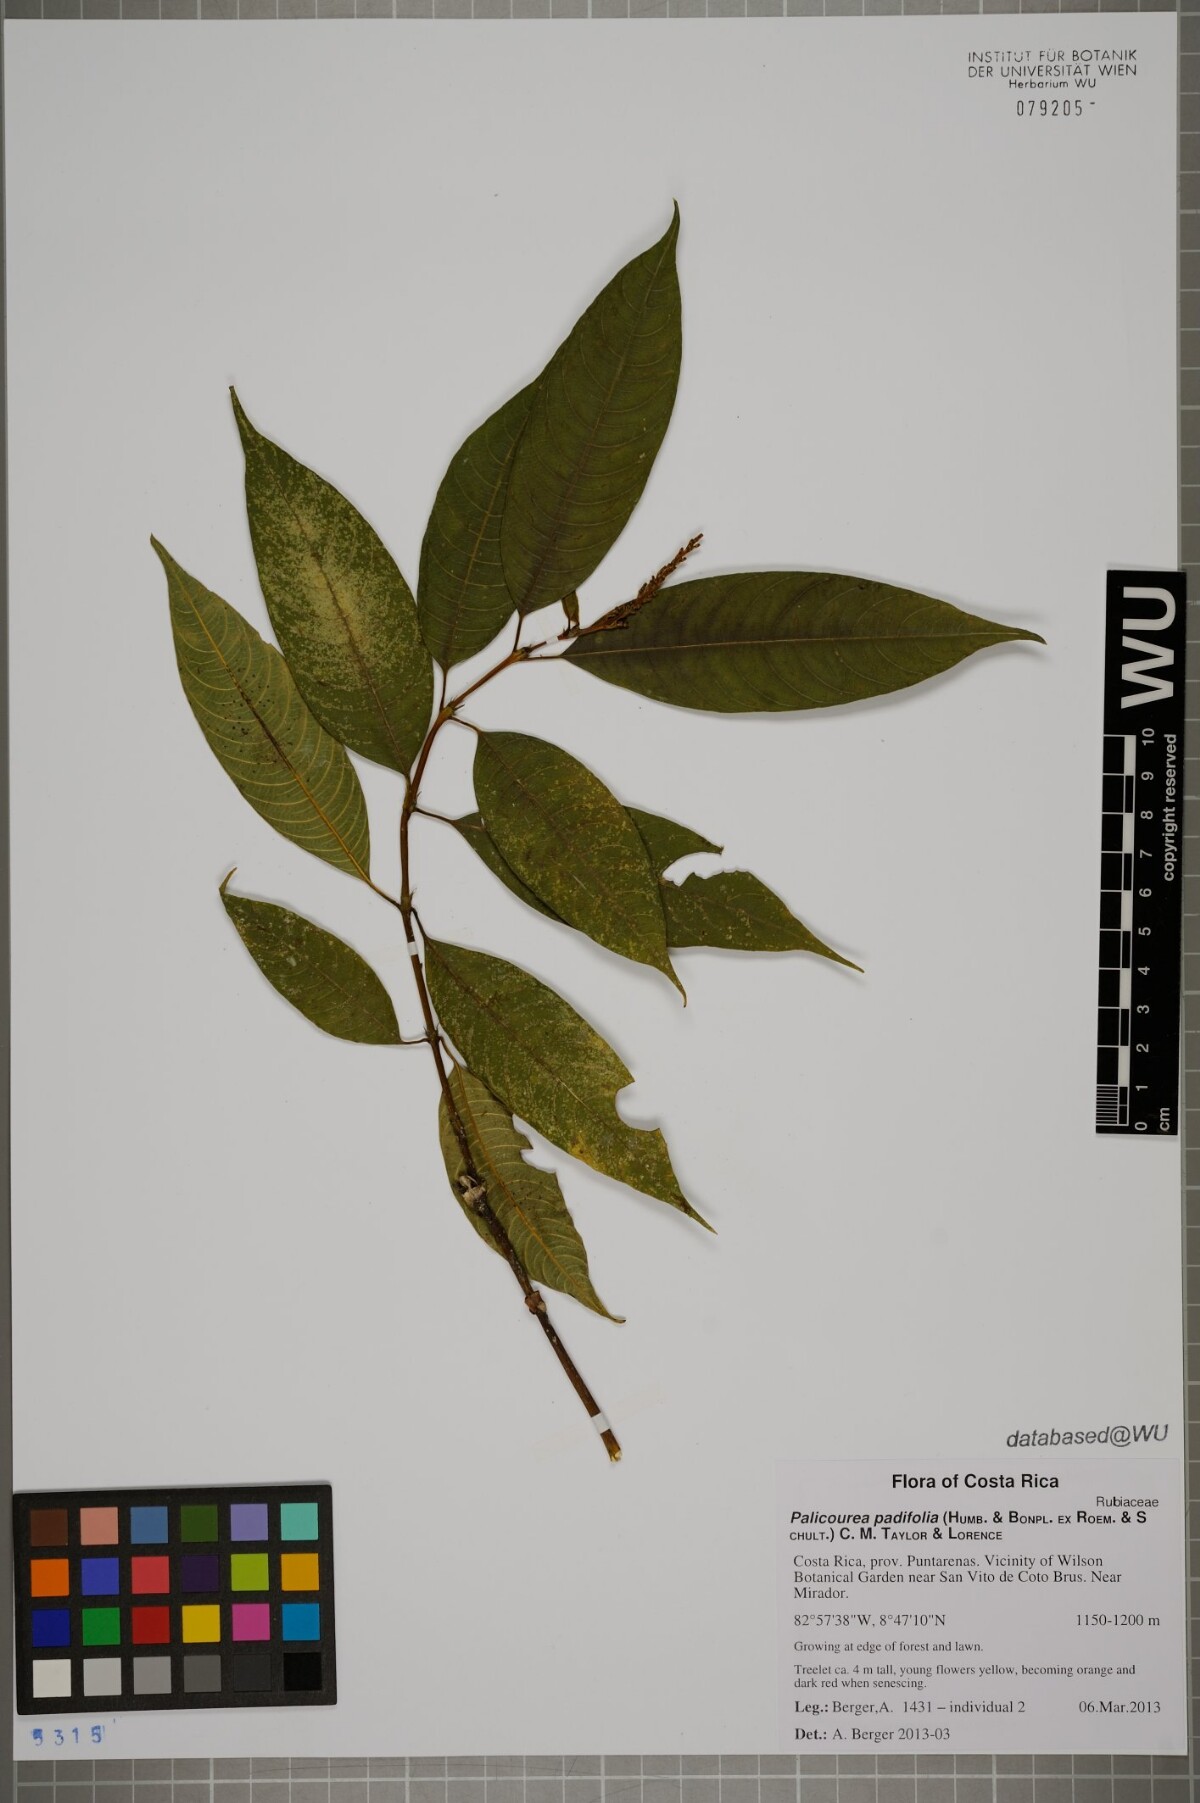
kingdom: Plantae
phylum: Tracheophyta
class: Magnoliopsida
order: Gentianales
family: Rubiaceae
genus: Palicourea
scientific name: Palicourea padifolia
